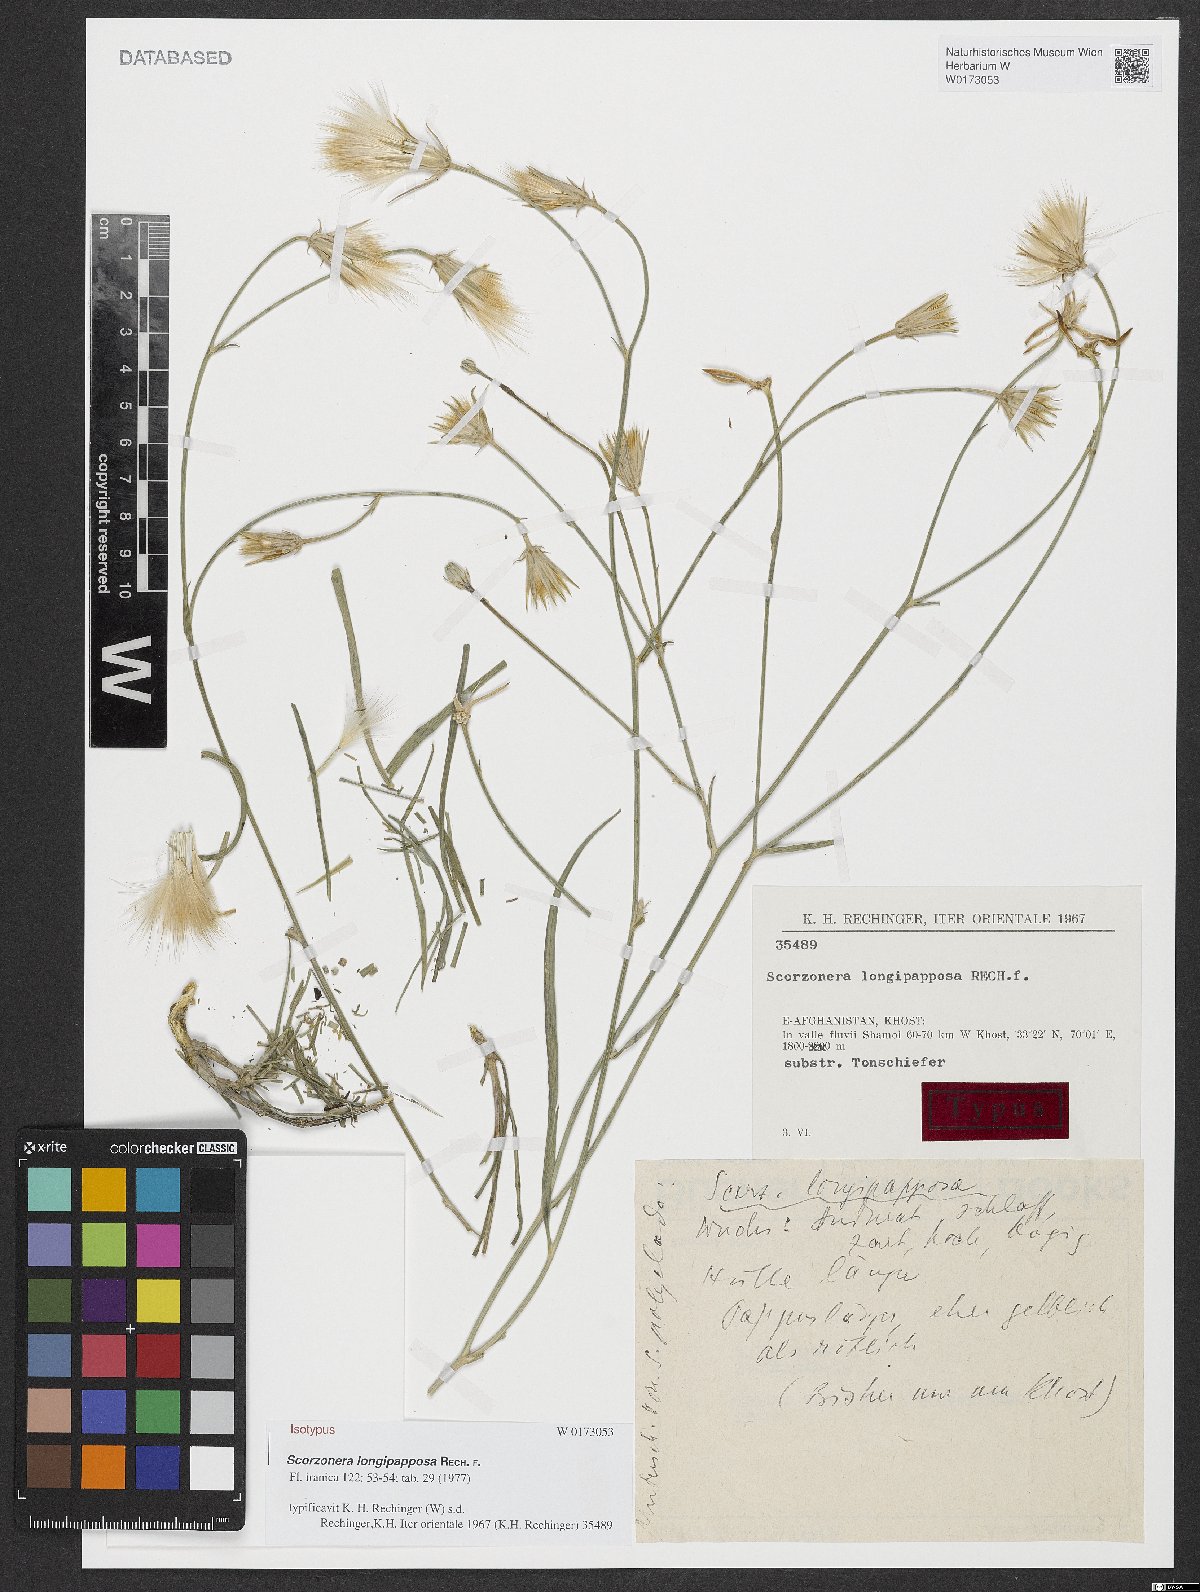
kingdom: Plantae
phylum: Tracheophyta
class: Magnoliopsida
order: Asterales
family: Asteraceae
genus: Ramaliella
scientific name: Ramaliella longipapposa
